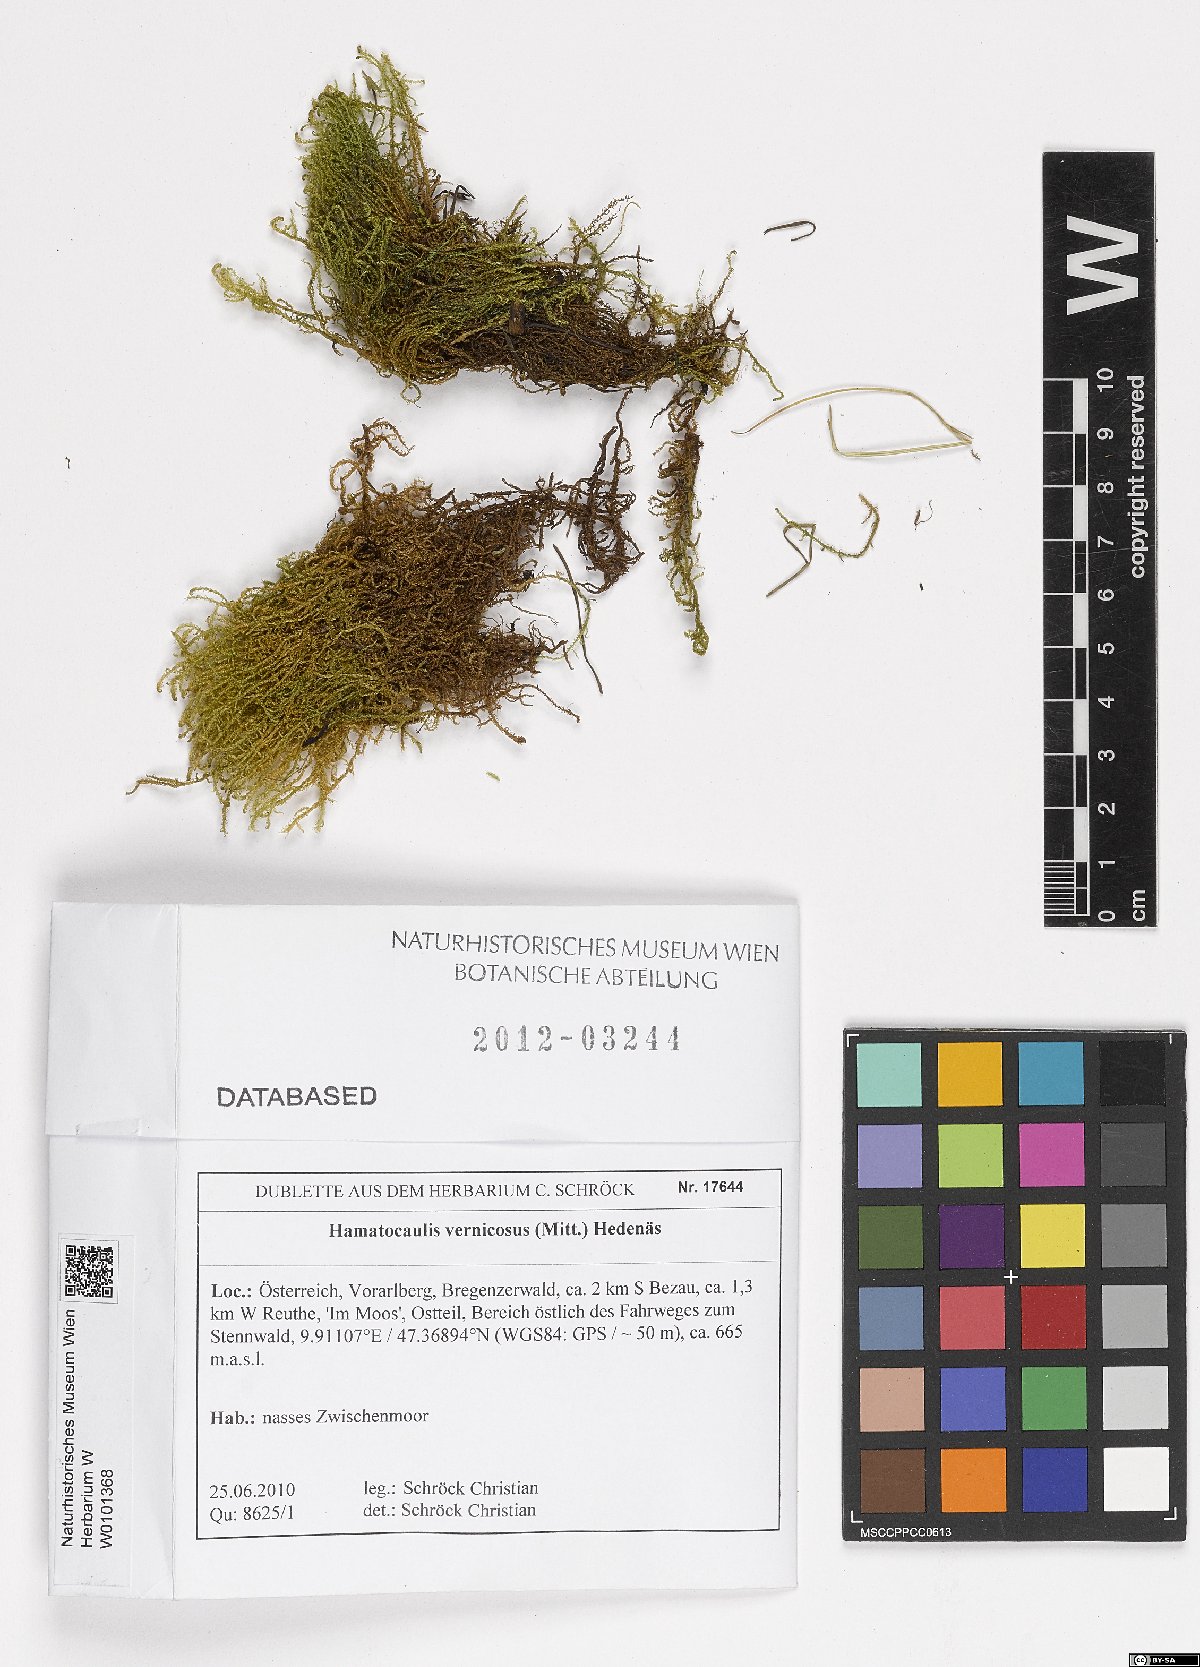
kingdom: Plantae
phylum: Bryophyta
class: Bryopsida
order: Hypnales
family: Scorpidiaceae
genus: Hamatocaulis
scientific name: Hamatocaulis vernicosus
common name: Varnished hook moss
